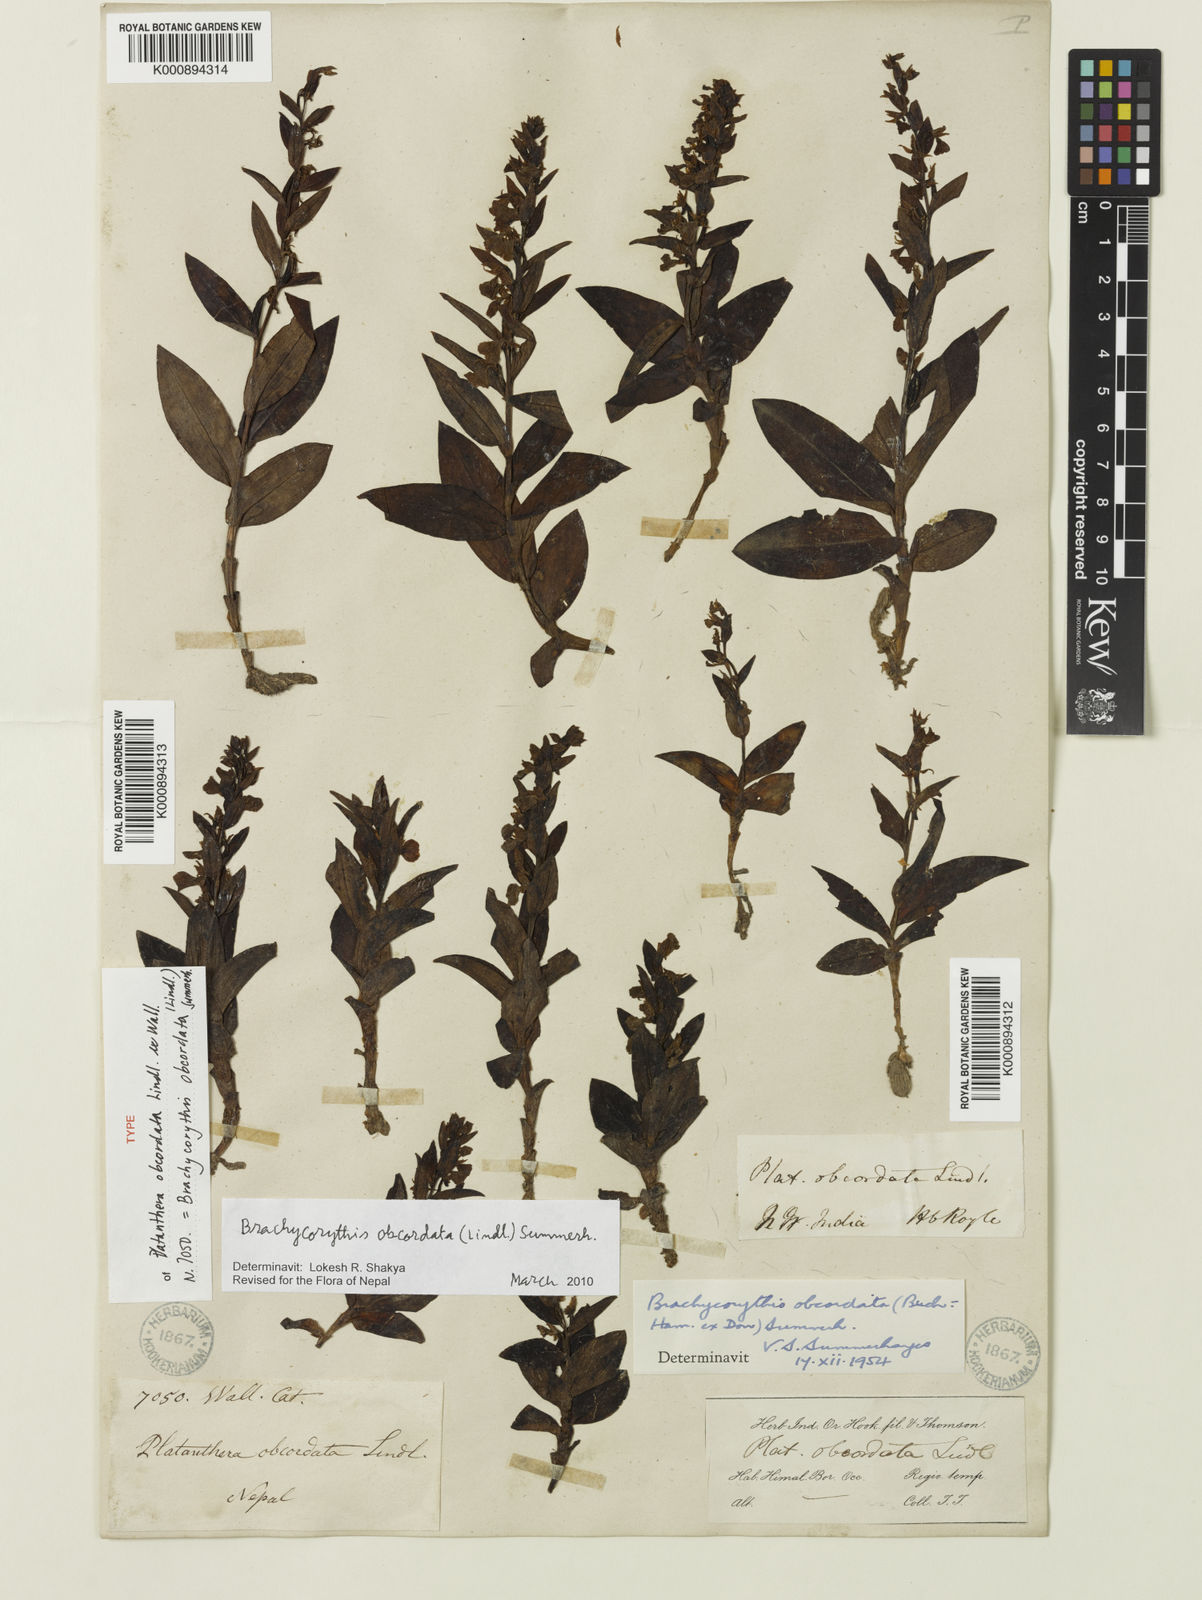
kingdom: Plantae
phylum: Tracheophyta
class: Liliopsida
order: Asparagales
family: Orchidaceae
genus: Platanthera
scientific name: Platanthera
